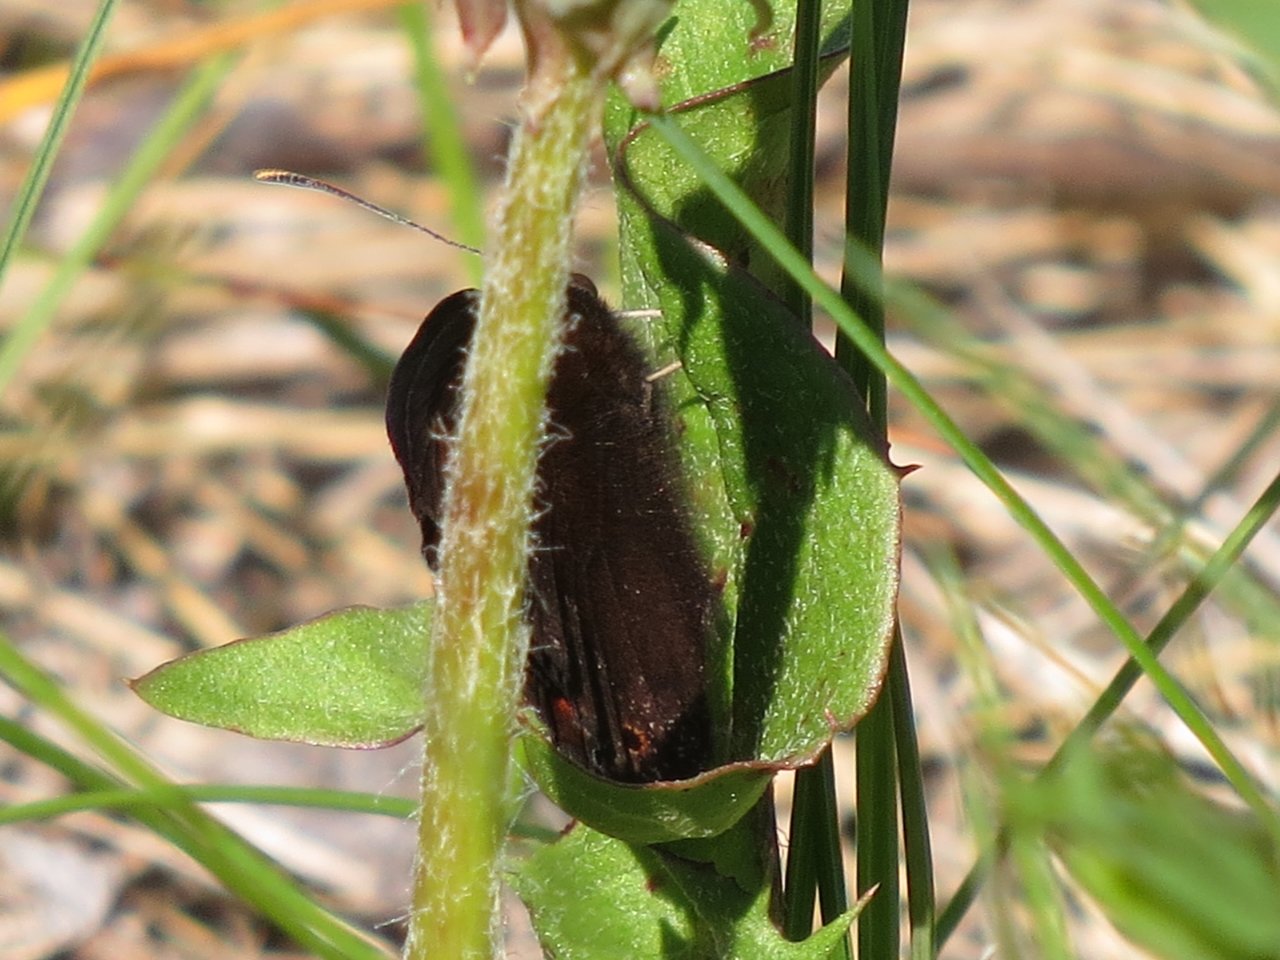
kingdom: Animalia
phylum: Arthropoda
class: Insecta
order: Lepidoptera
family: Nymphalidae
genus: Erebia
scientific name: Erebia epipsodea
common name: Common Alpine
